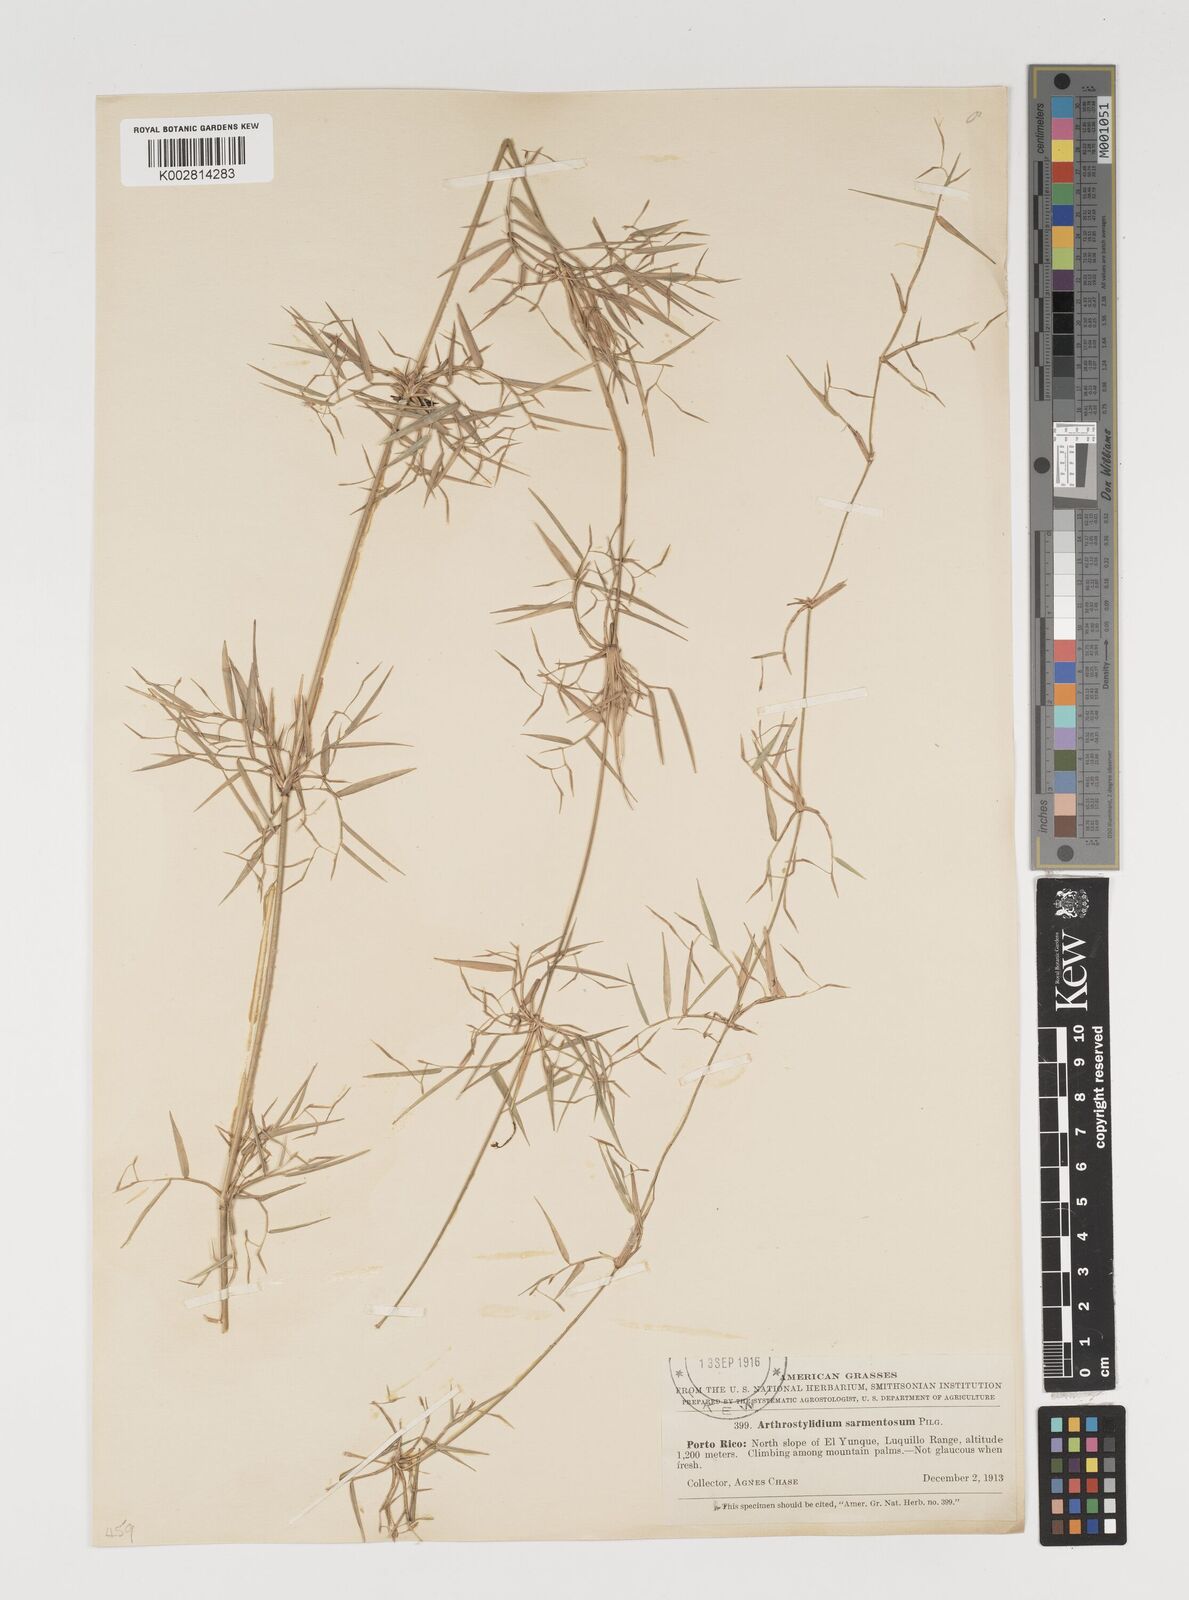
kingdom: Plantae
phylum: Tracheophyta
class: Liliopsida
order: Poales
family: Poaceae
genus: Arthrostylidium
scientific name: Arthrostylidium sarmentosum
